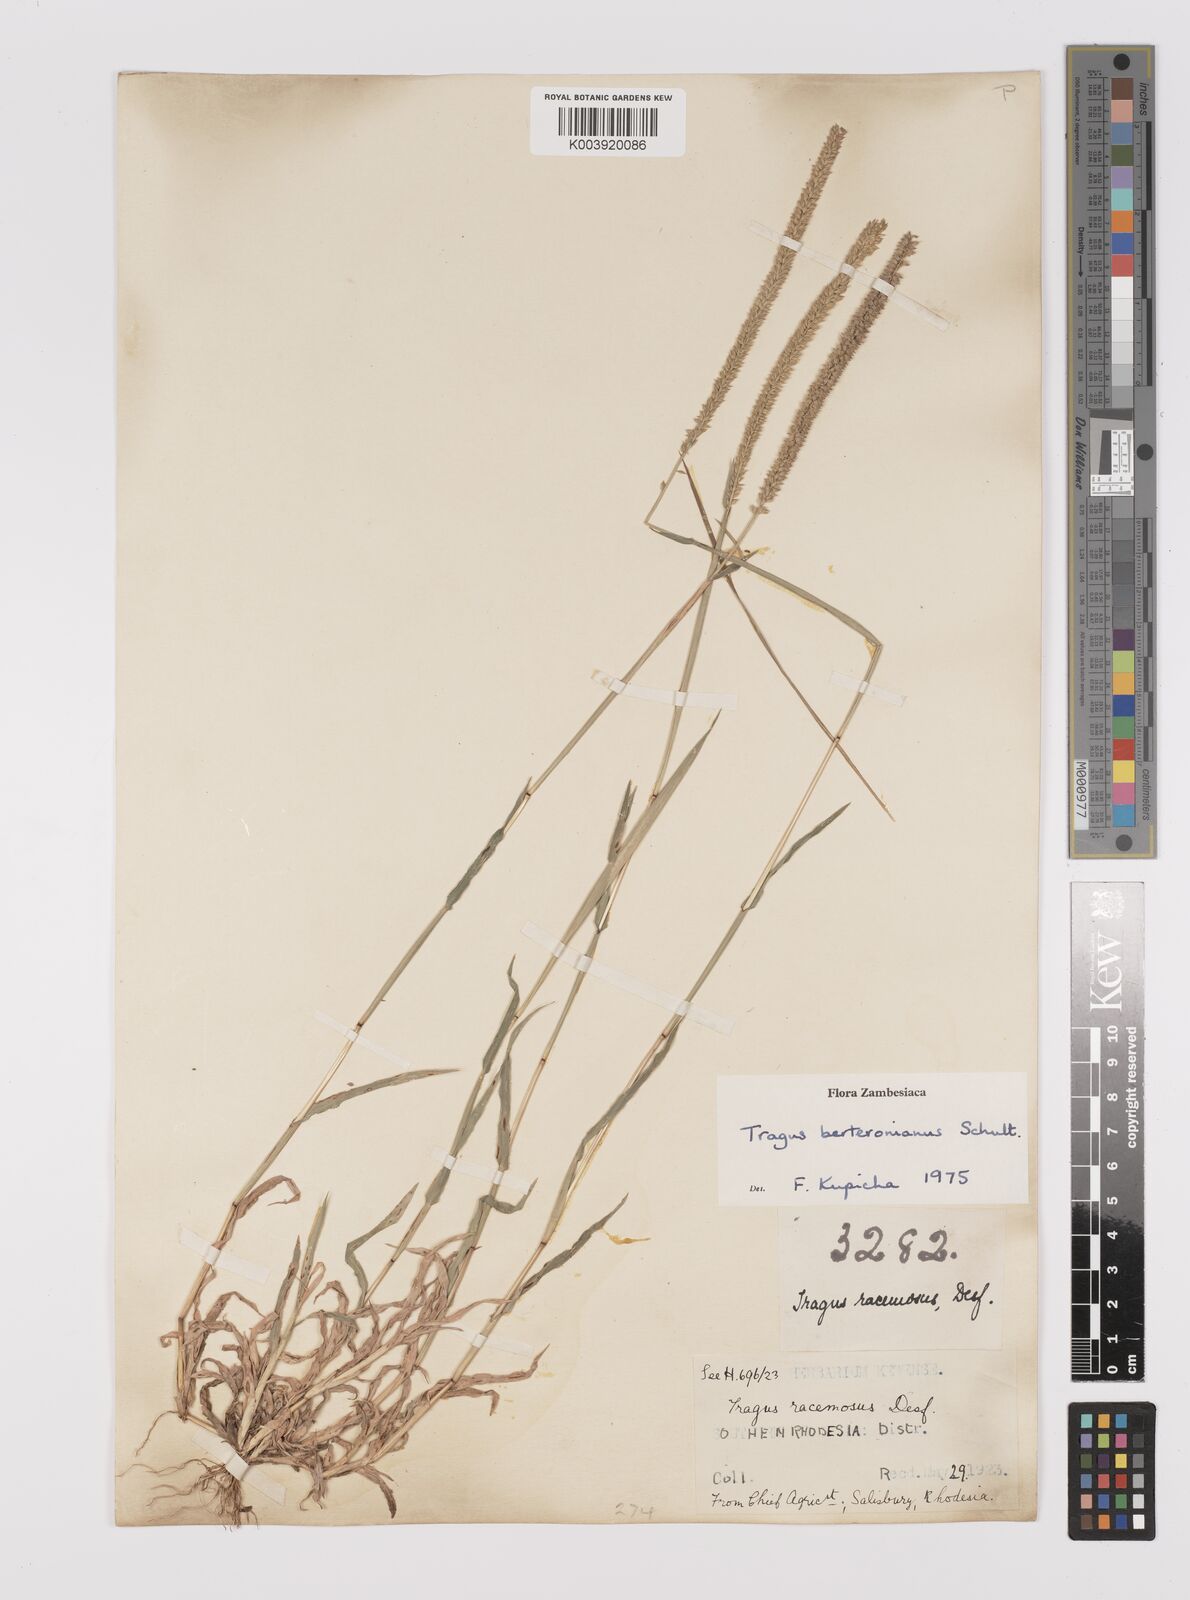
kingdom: Plantae
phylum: Tracheophyta
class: Liliopsida
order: Poales
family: Poaceae
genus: Tragus
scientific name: Tragus berteronianus
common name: African bur-grass
